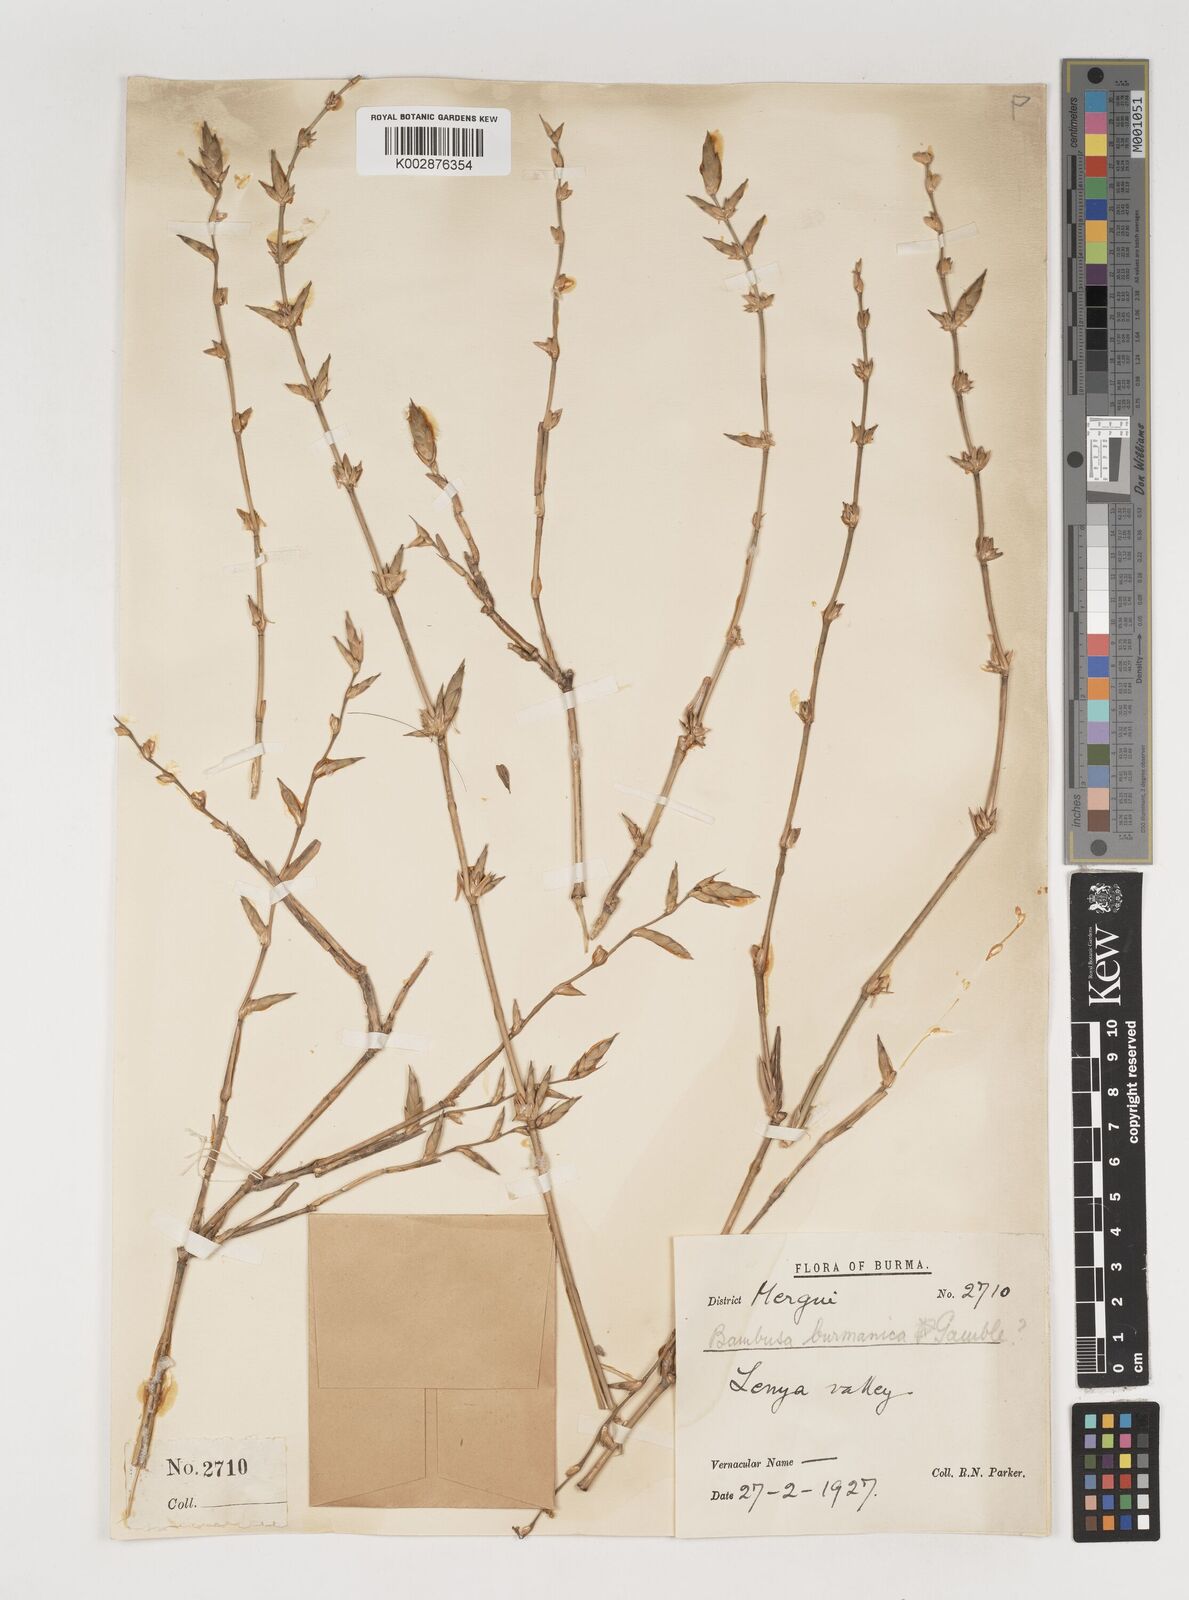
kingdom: Plantae
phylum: Tracheophyta
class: Liliopsida
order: Poales
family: Poaceae
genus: Bambusa
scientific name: Bambusa burmanica
